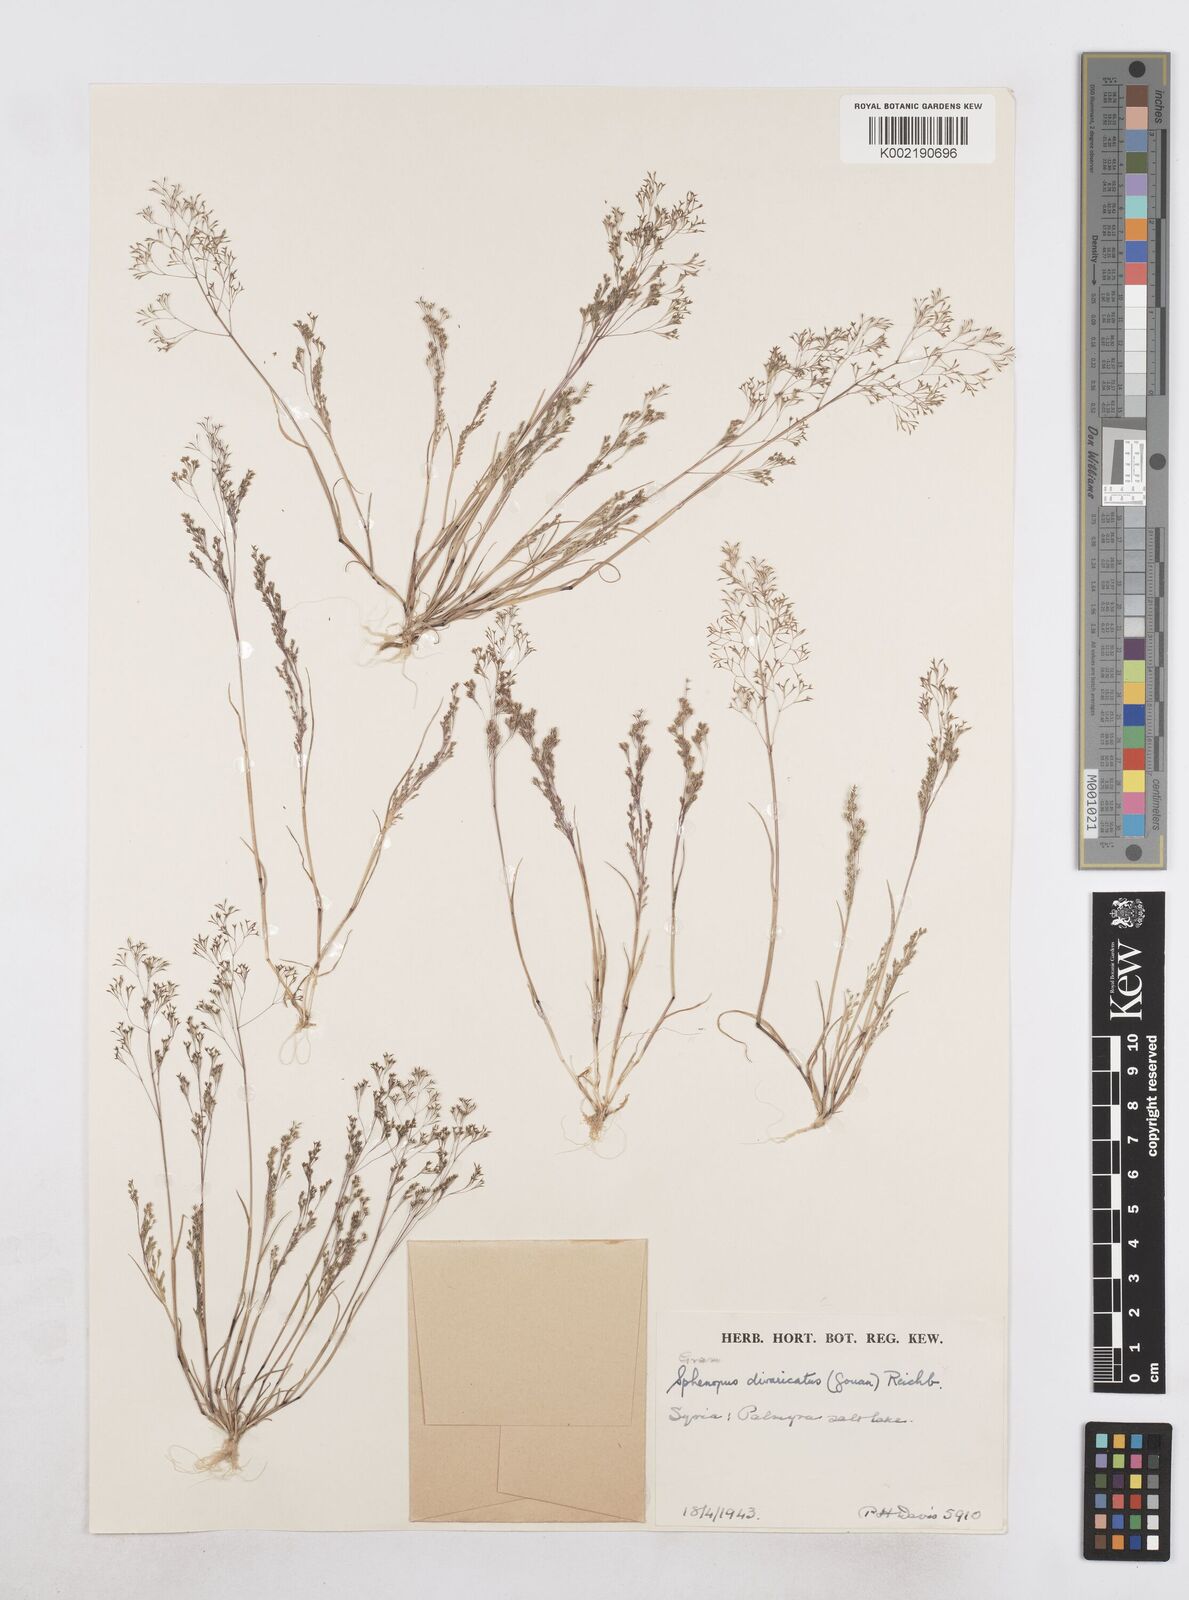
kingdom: Plantae
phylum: Tracheophyta
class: Liliopsida
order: Poales
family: Poaceae
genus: Sphenopus
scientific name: Sphenopus divaricatus
